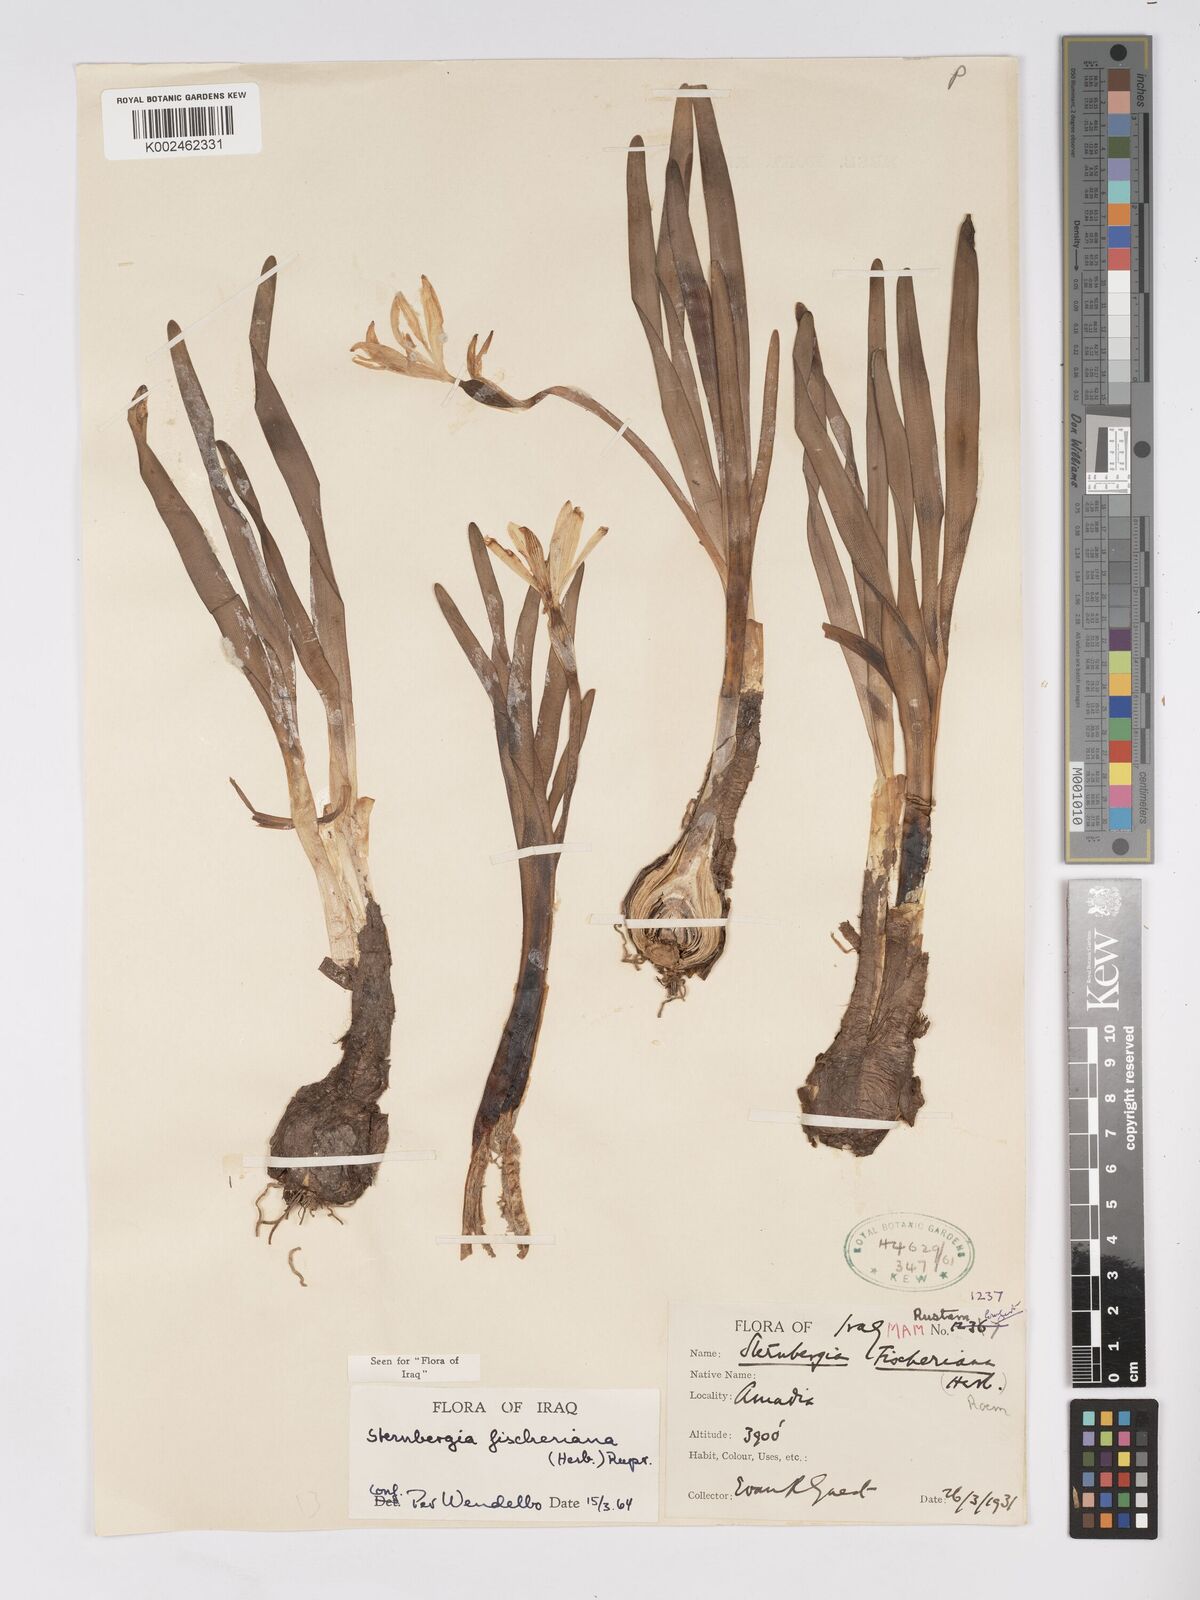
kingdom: Plantae
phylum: Tracheophyta
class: Liliopsida
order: Asparagales
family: Amaryllidaceae
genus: Sternbergia
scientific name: Sternbergia vernalis
